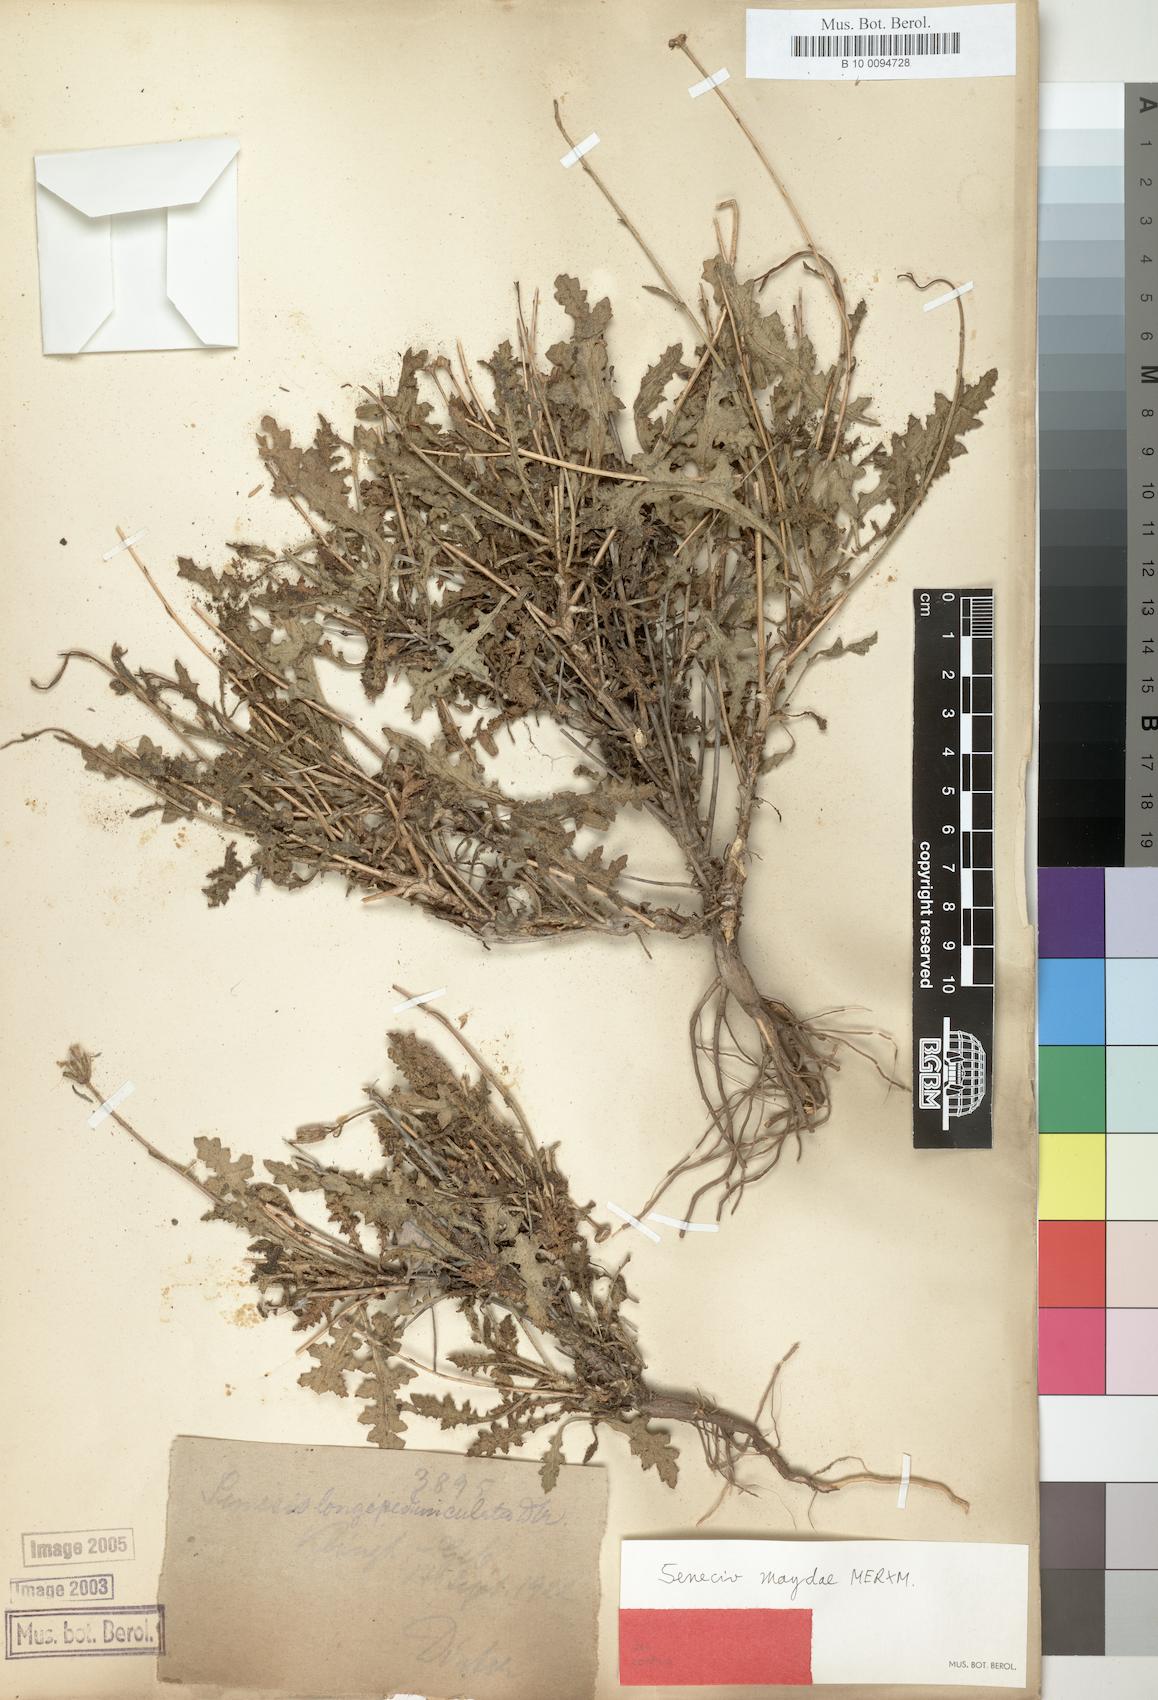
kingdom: Plantae
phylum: Tracheophyta
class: Magnoliopsida
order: Asterales
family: Asteraceae
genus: Senecio
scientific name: Senecio maydae
